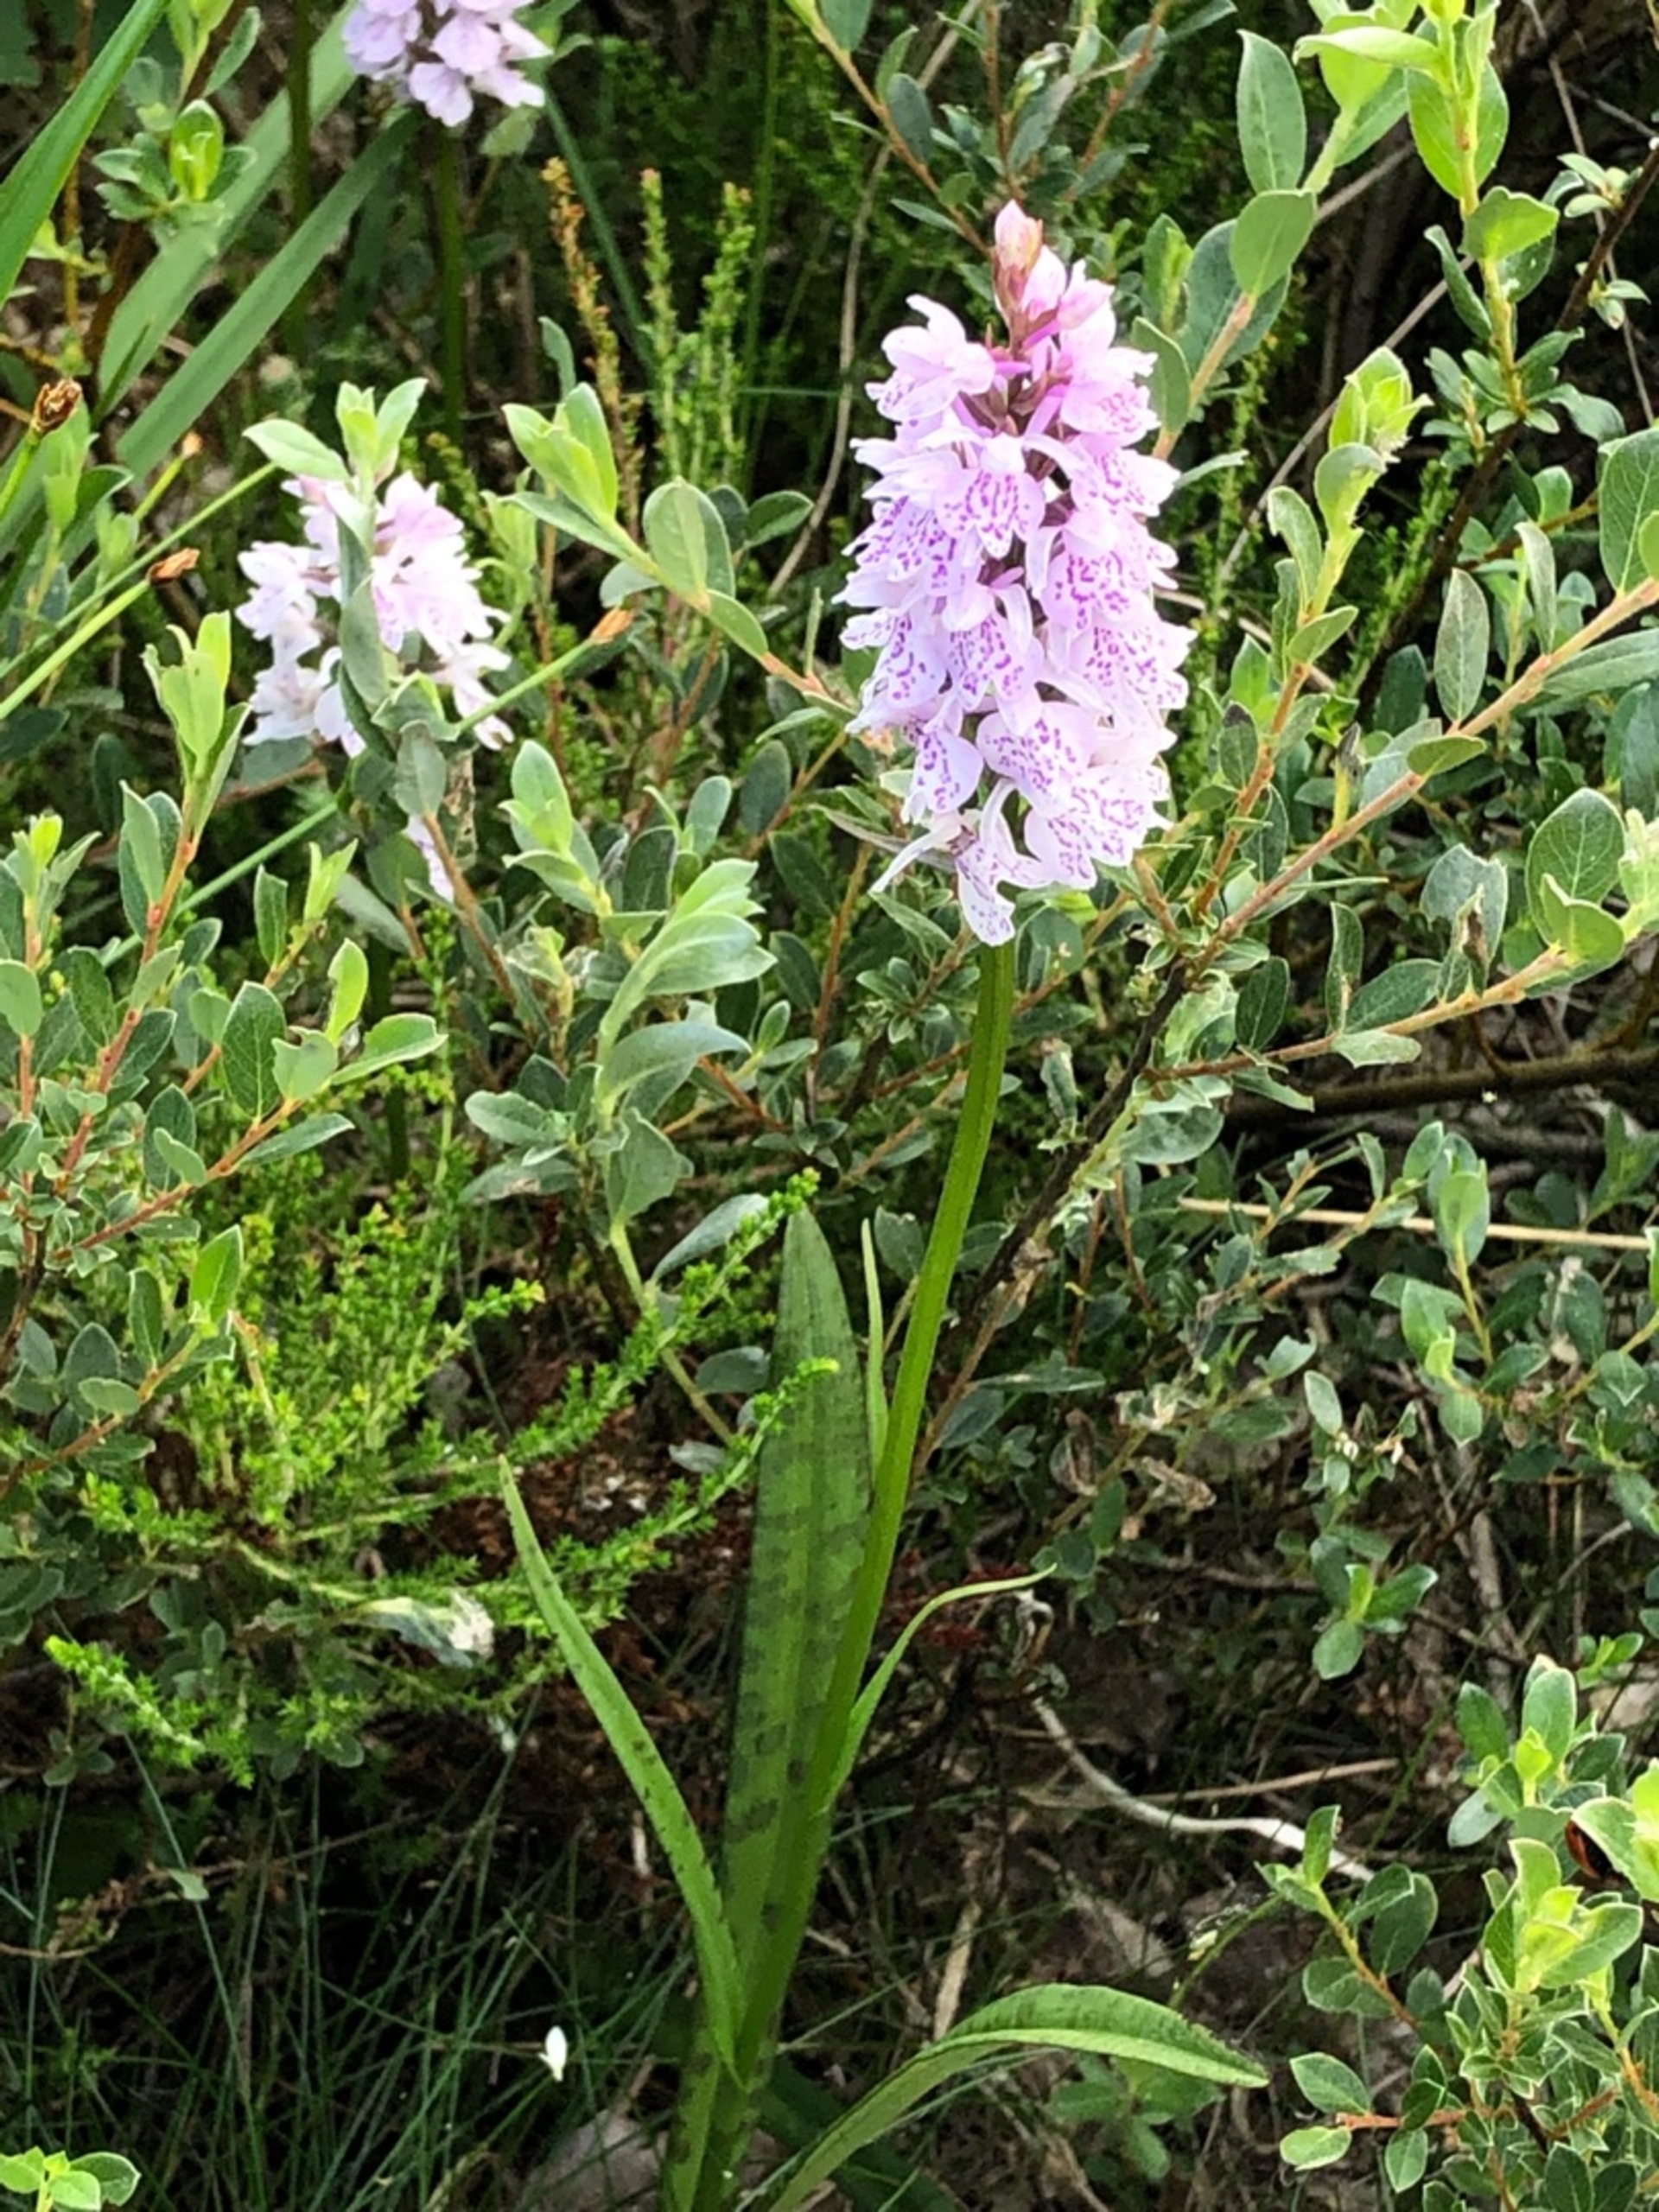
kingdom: Plantae
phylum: Tracheophyta
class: Liliopsida
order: Asparagales
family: Orchidaceae
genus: Dactylorhiza
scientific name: Dactylorhiza maculata
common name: Plettet gøgeurt
